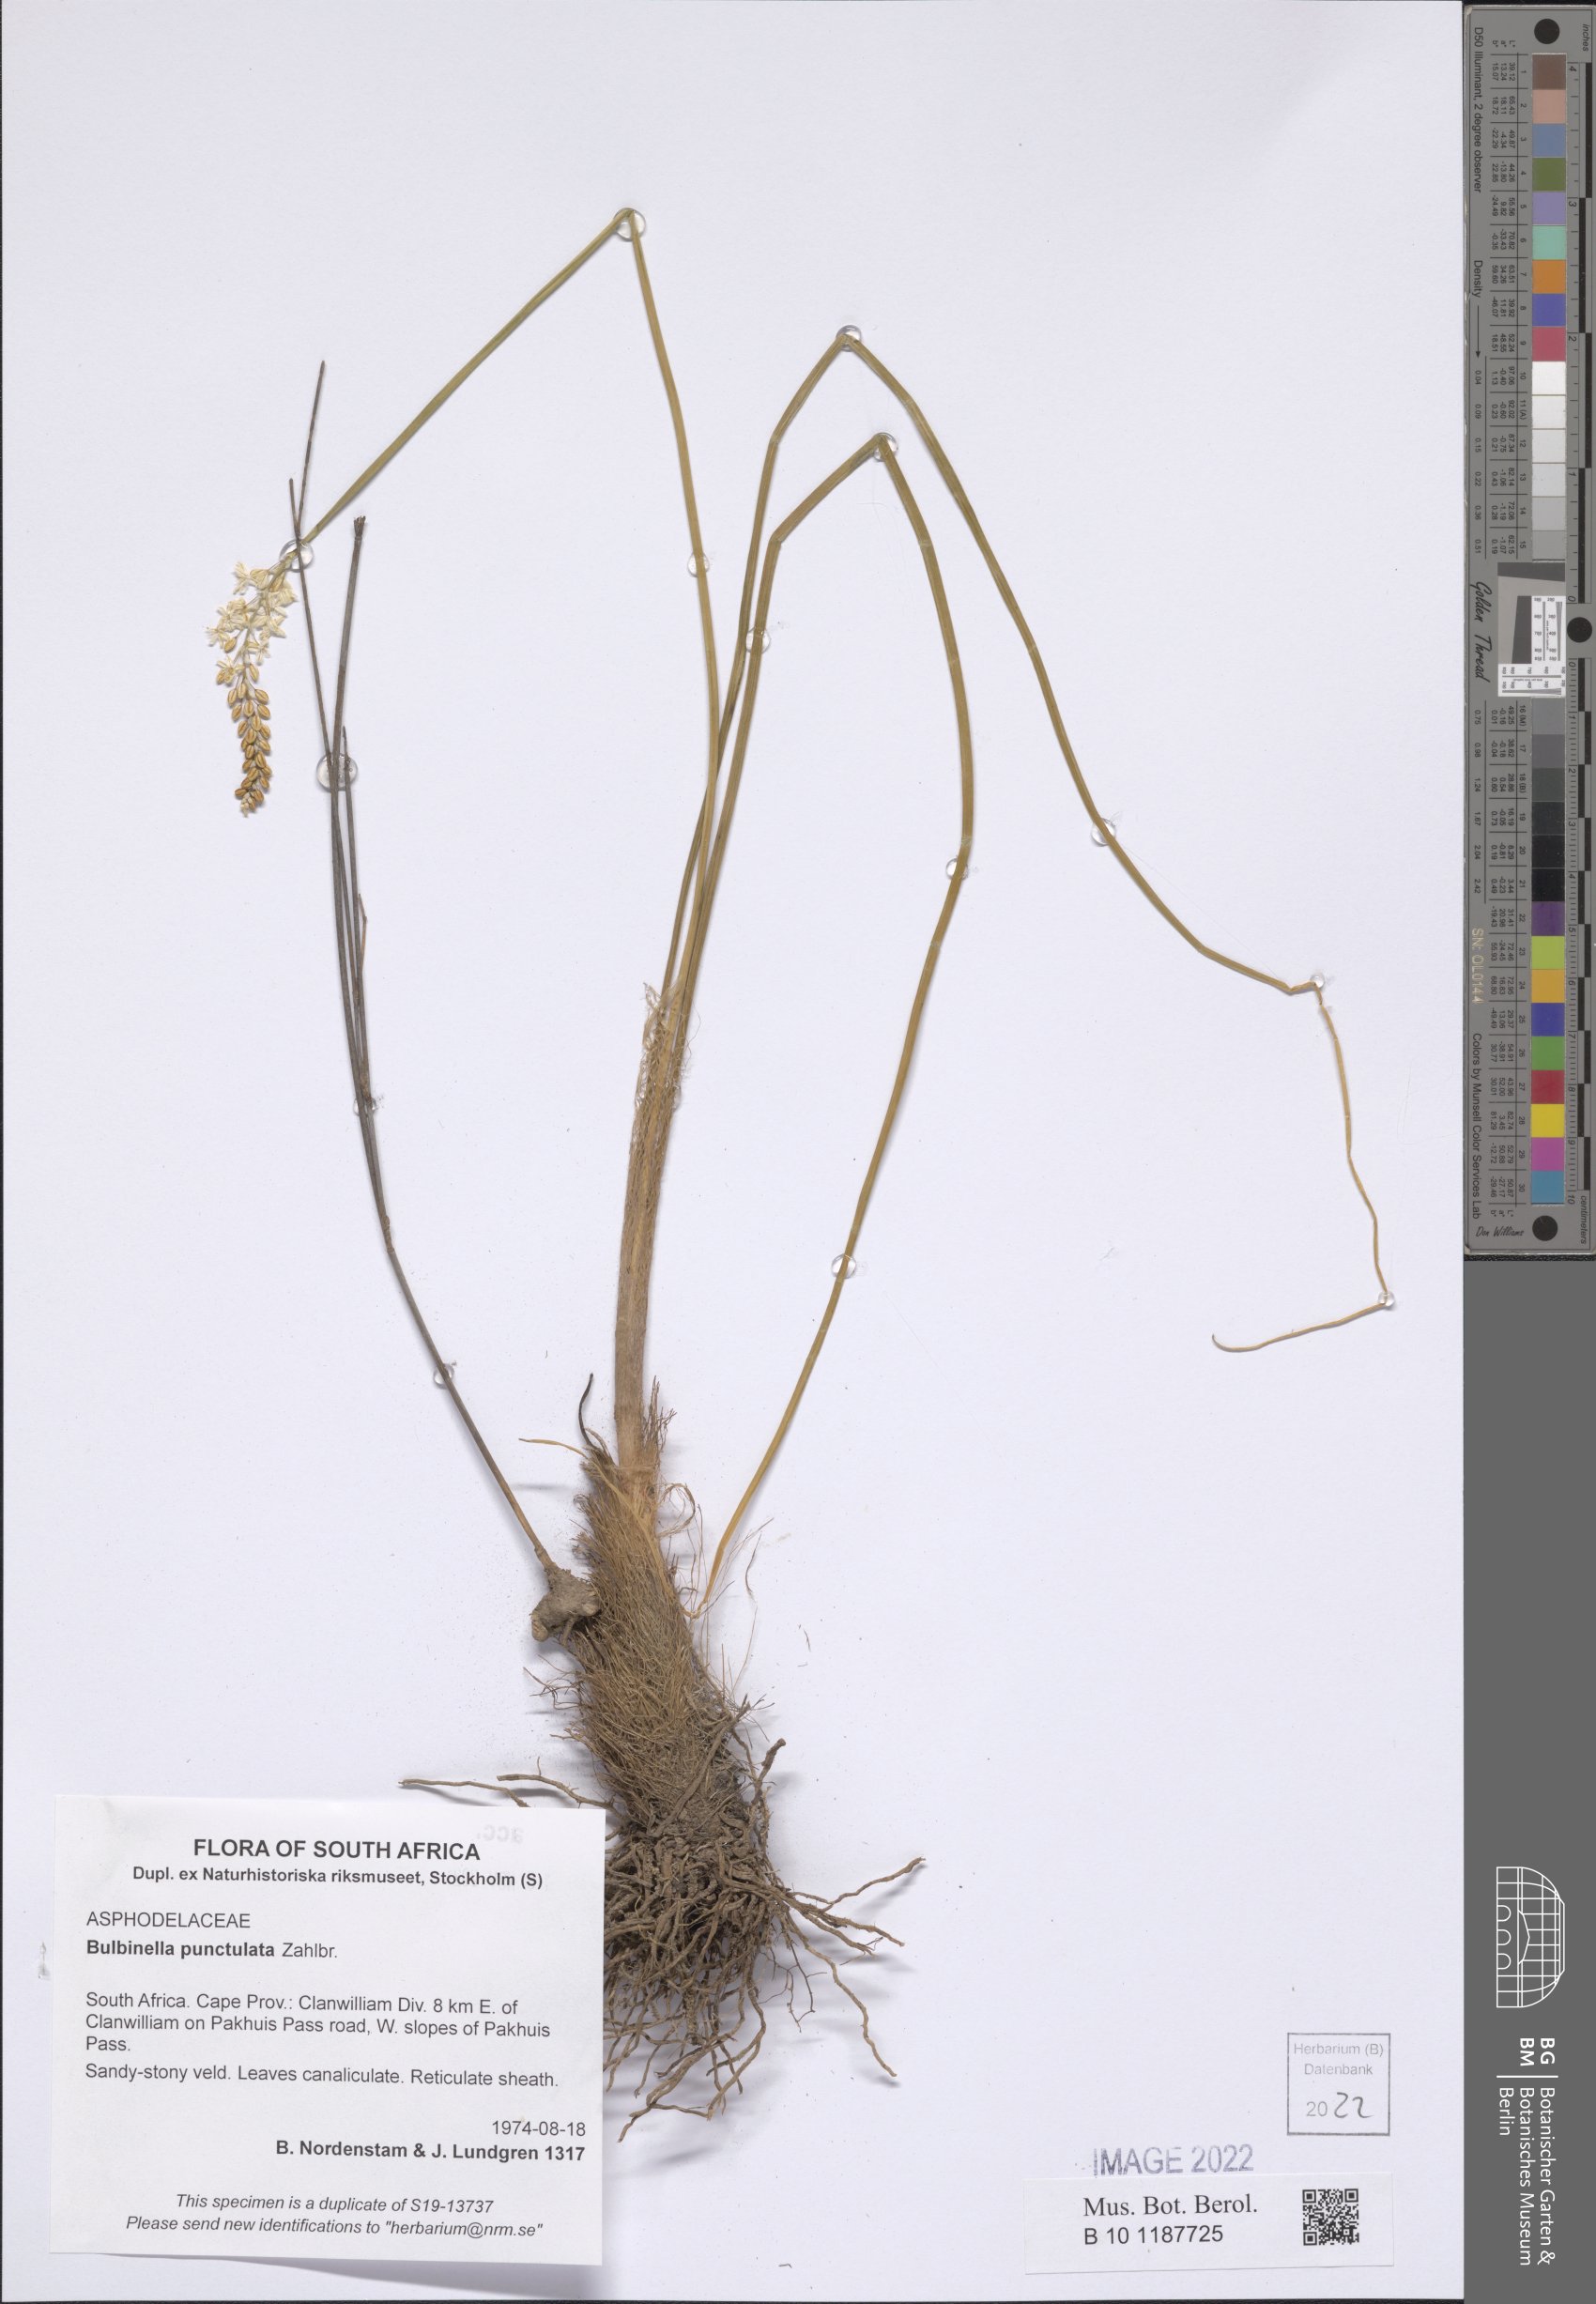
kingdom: Plantae
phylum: Tracheophyta
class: Liliopsida
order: Asparagales
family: Asphodelaceae
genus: Bulbinella
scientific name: Bulbinella punctulata
